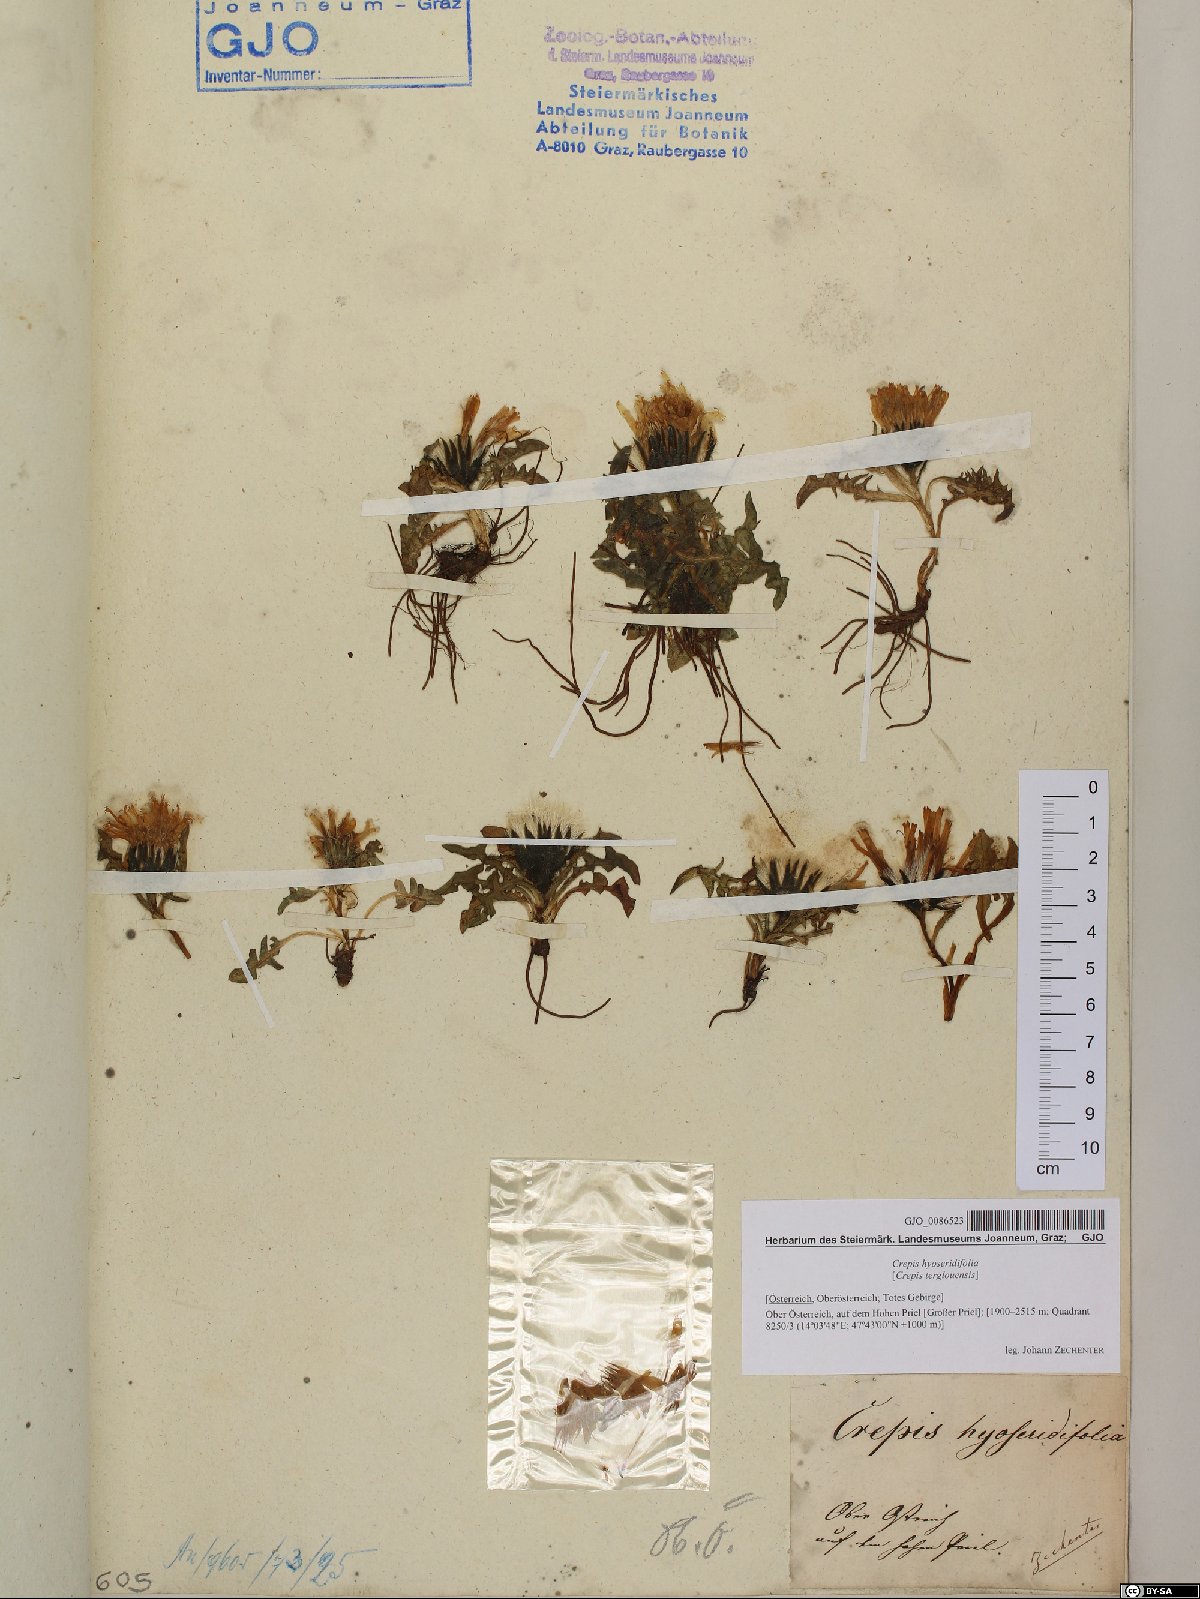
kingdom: Plantae
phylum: Tracheophyta
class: Magnoliopsida
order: Asterales
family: Asteraceae
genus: Crepis
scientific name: Crepis terglouensis
